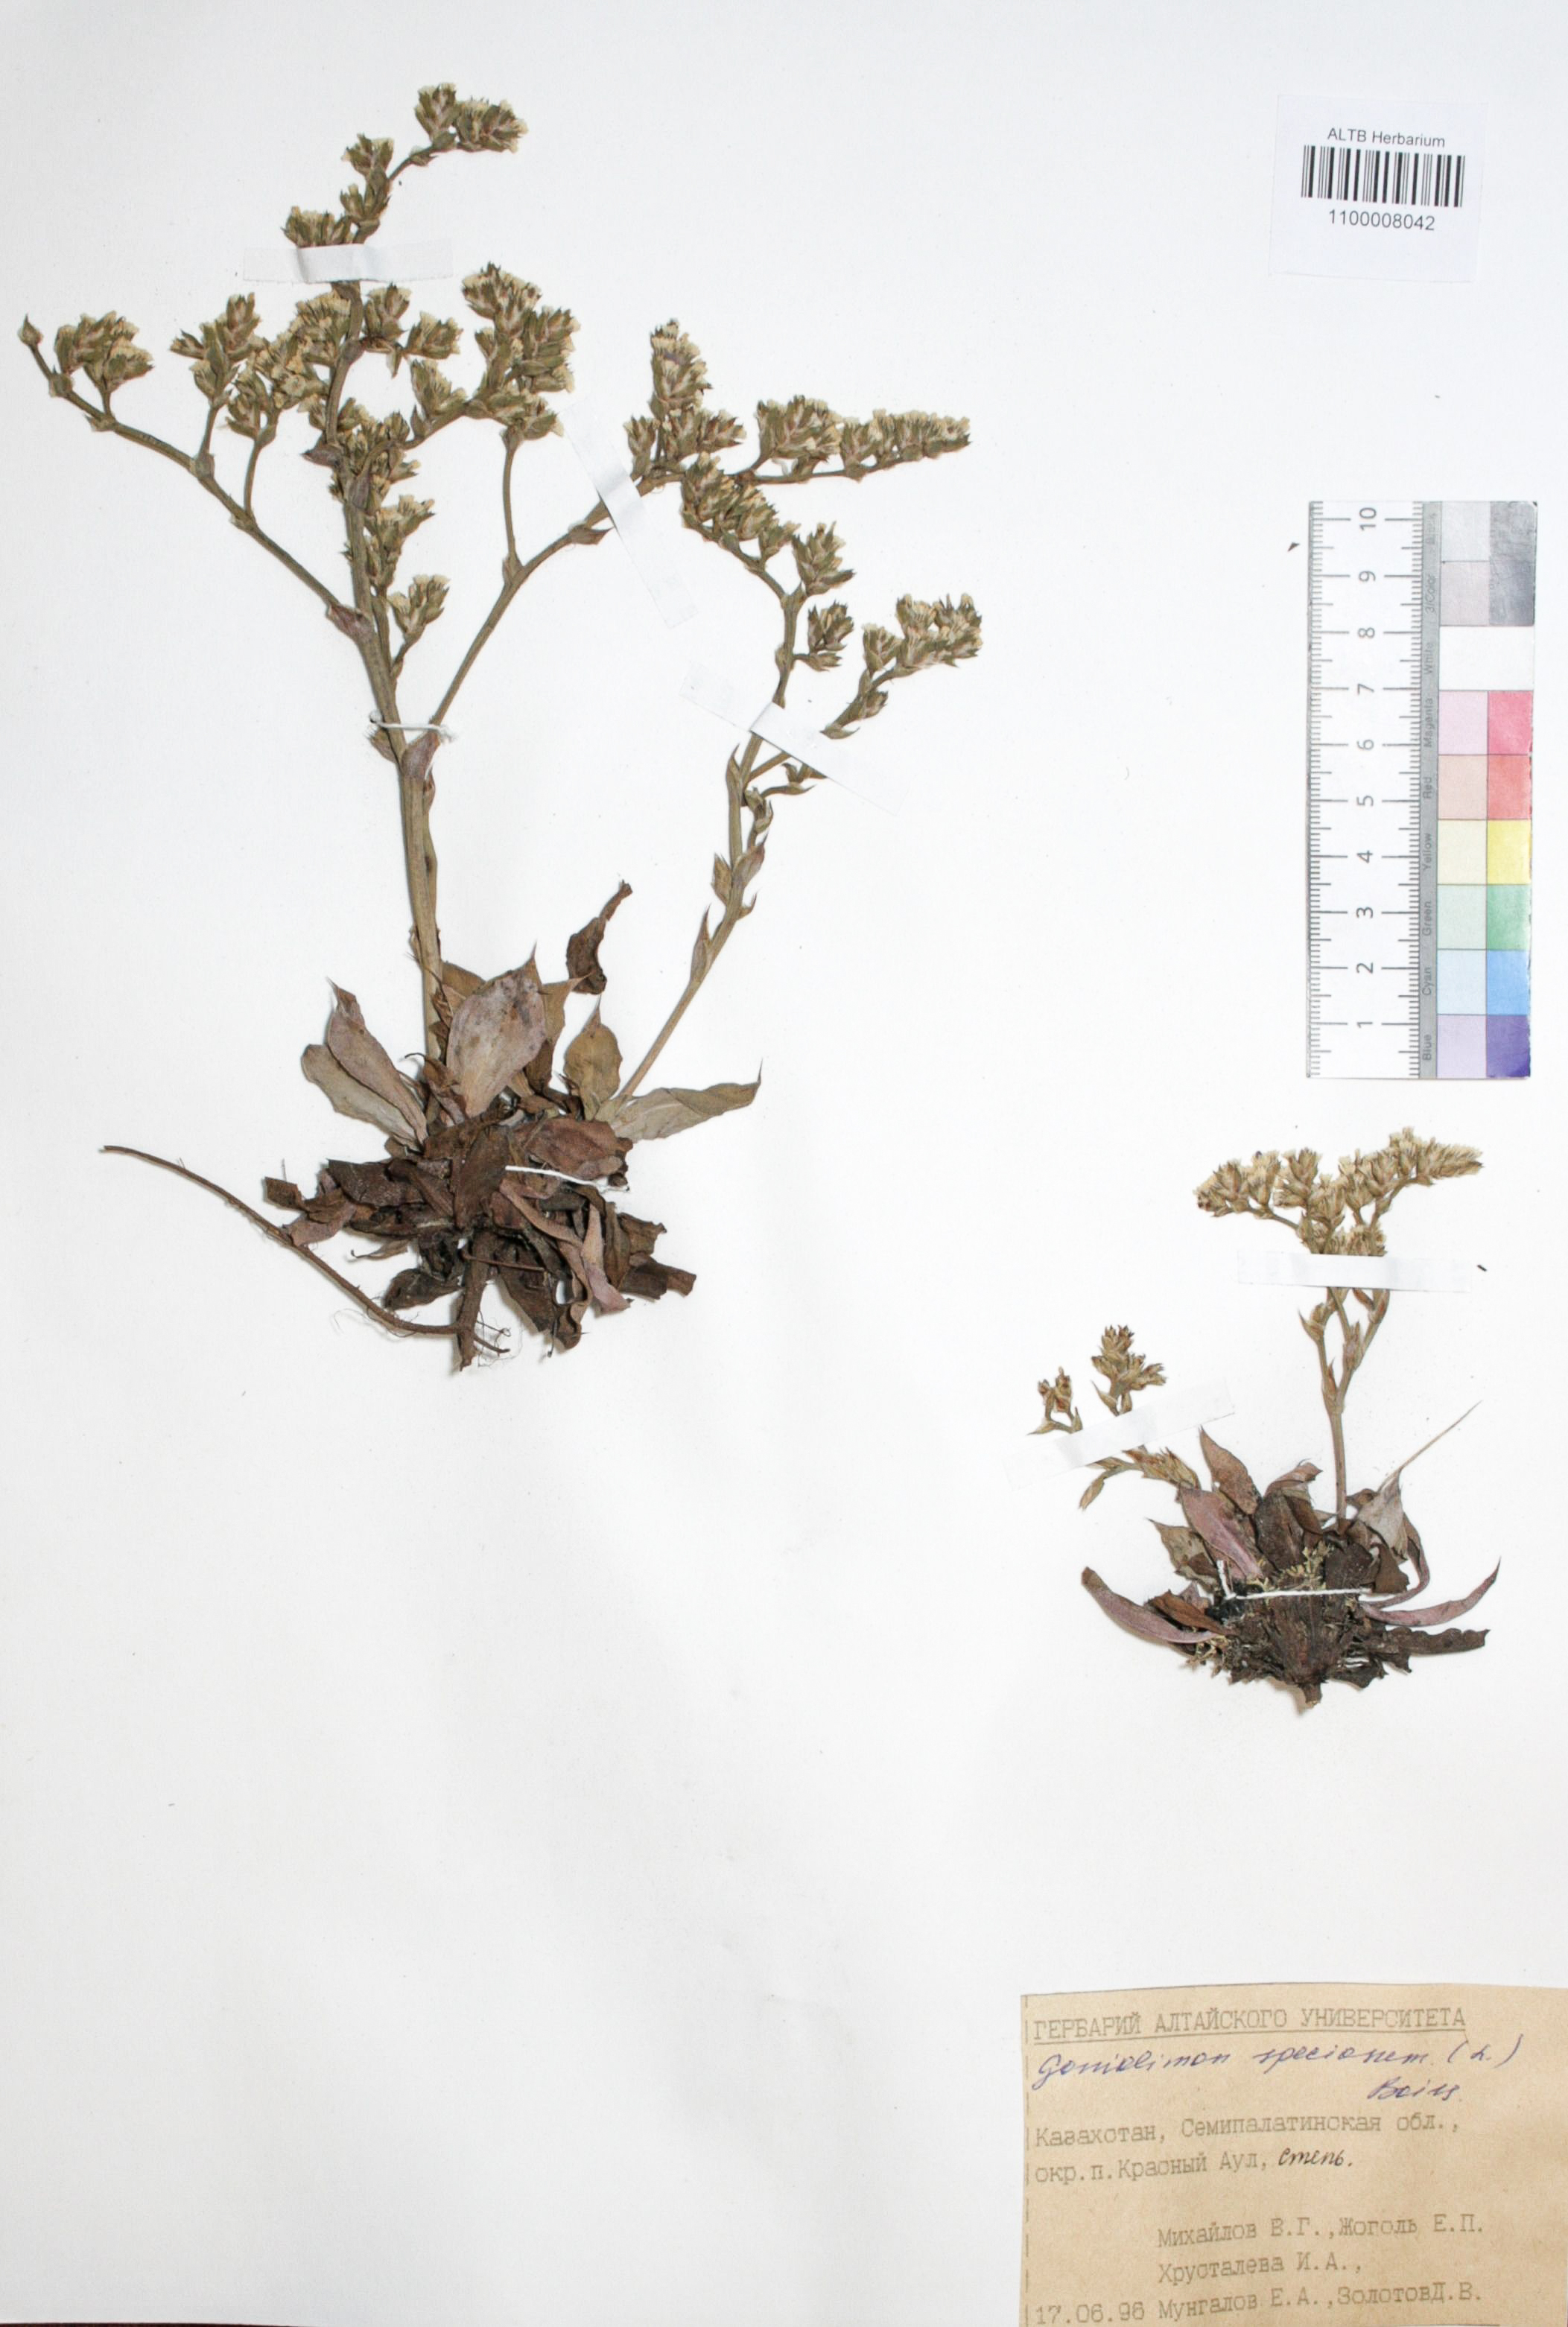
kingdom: Plantae
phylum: Tracheophyta
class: Magnoliopsida
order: Caryophyllales
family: Plumbaginaceae
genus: Goniolimon
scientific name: Goniolimon speciosum
